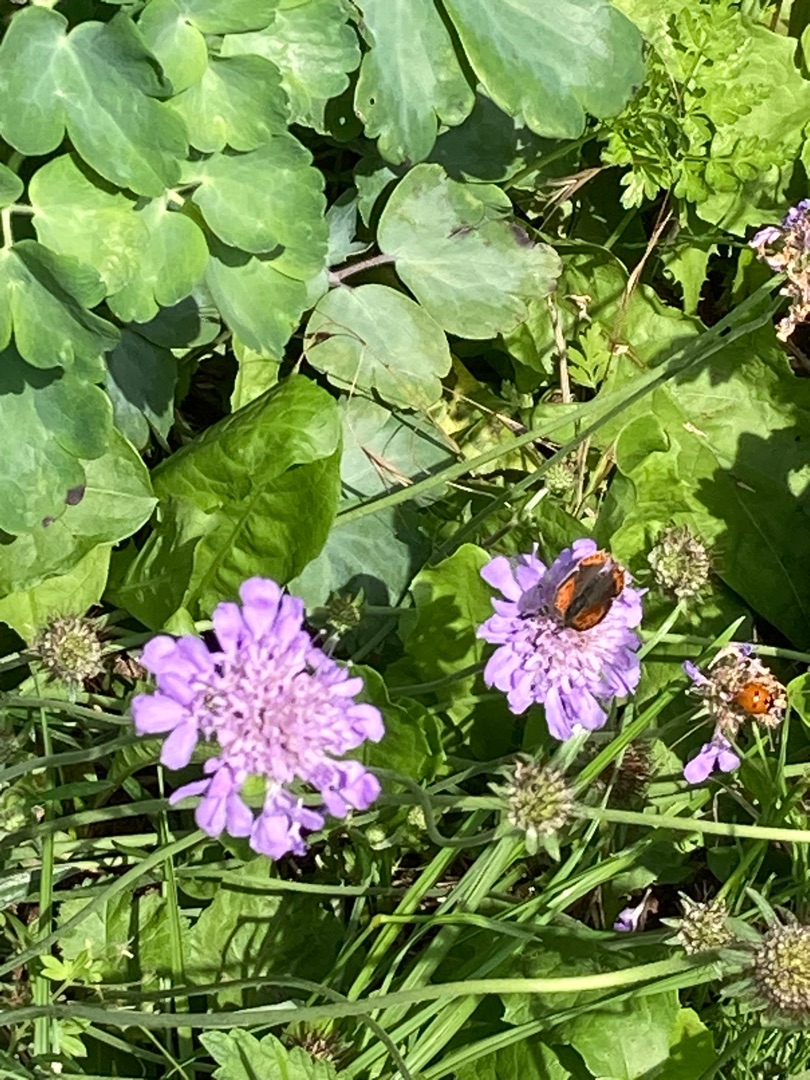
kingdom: Animalia
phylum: Arthropoda
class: Insecta
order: Lepidoptera
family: Lycaenidae
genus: Lycaena
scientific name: Lycaena phlaeas
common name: Lille ildfugl
